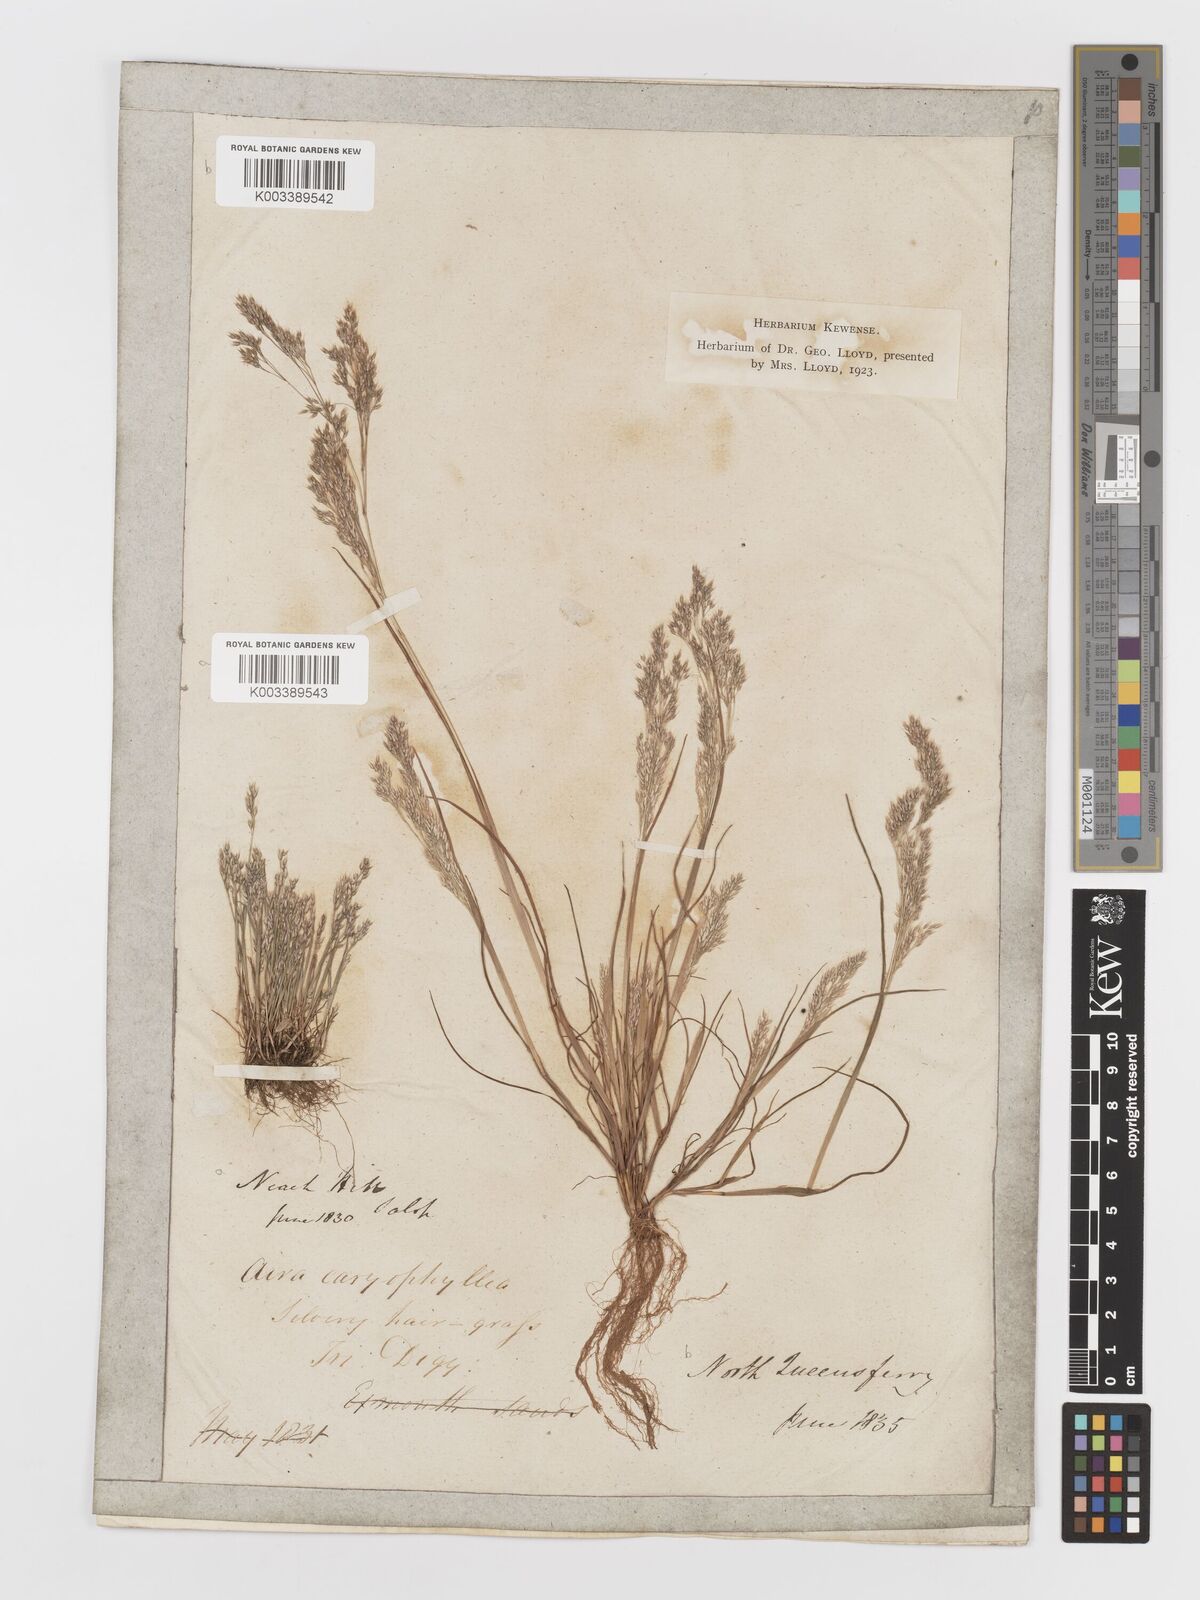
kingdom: Plantae
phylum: Tracheophyta
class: Liliopsida
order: Poales
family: Poaceae
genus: Aira
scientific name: Aira caryophyllea
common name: Silver hairgrass
